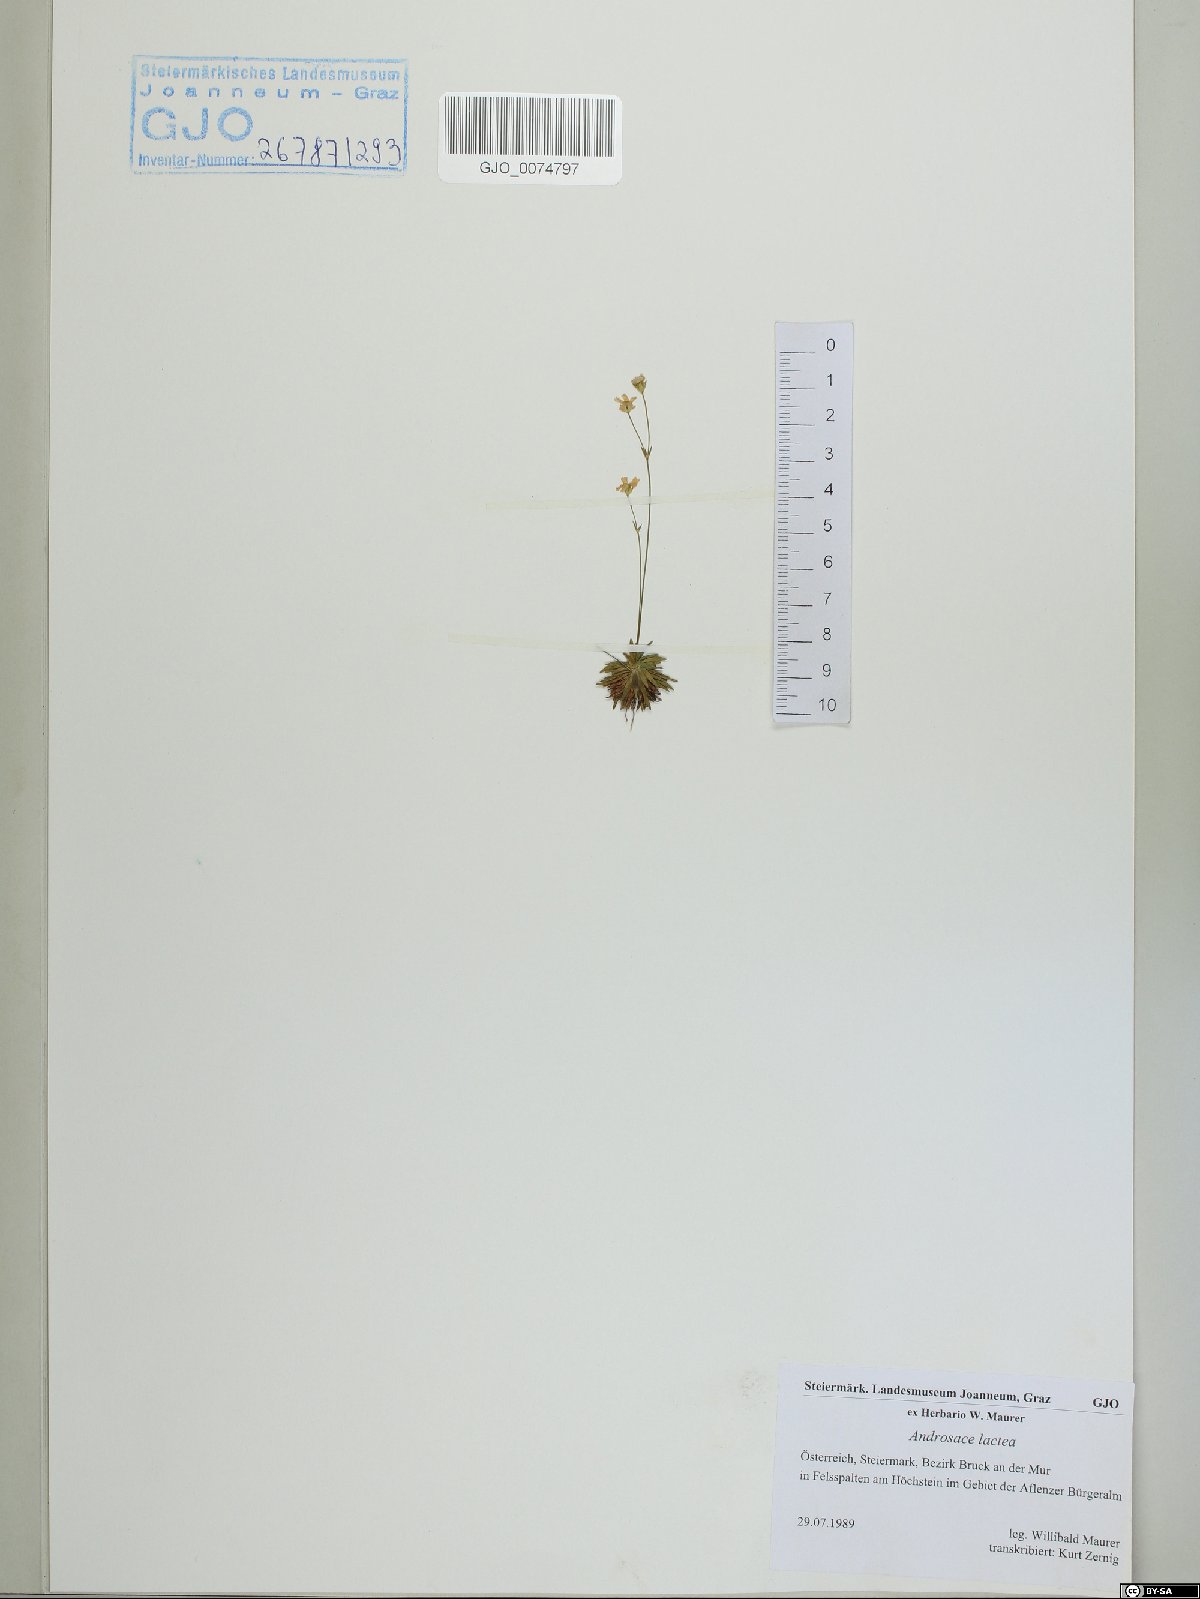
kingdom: Plantae
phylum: Tracheophyta
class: Magnoliopsida
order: Ericales
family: Primulaceae
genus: Androsace
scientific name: Androsace lactea
